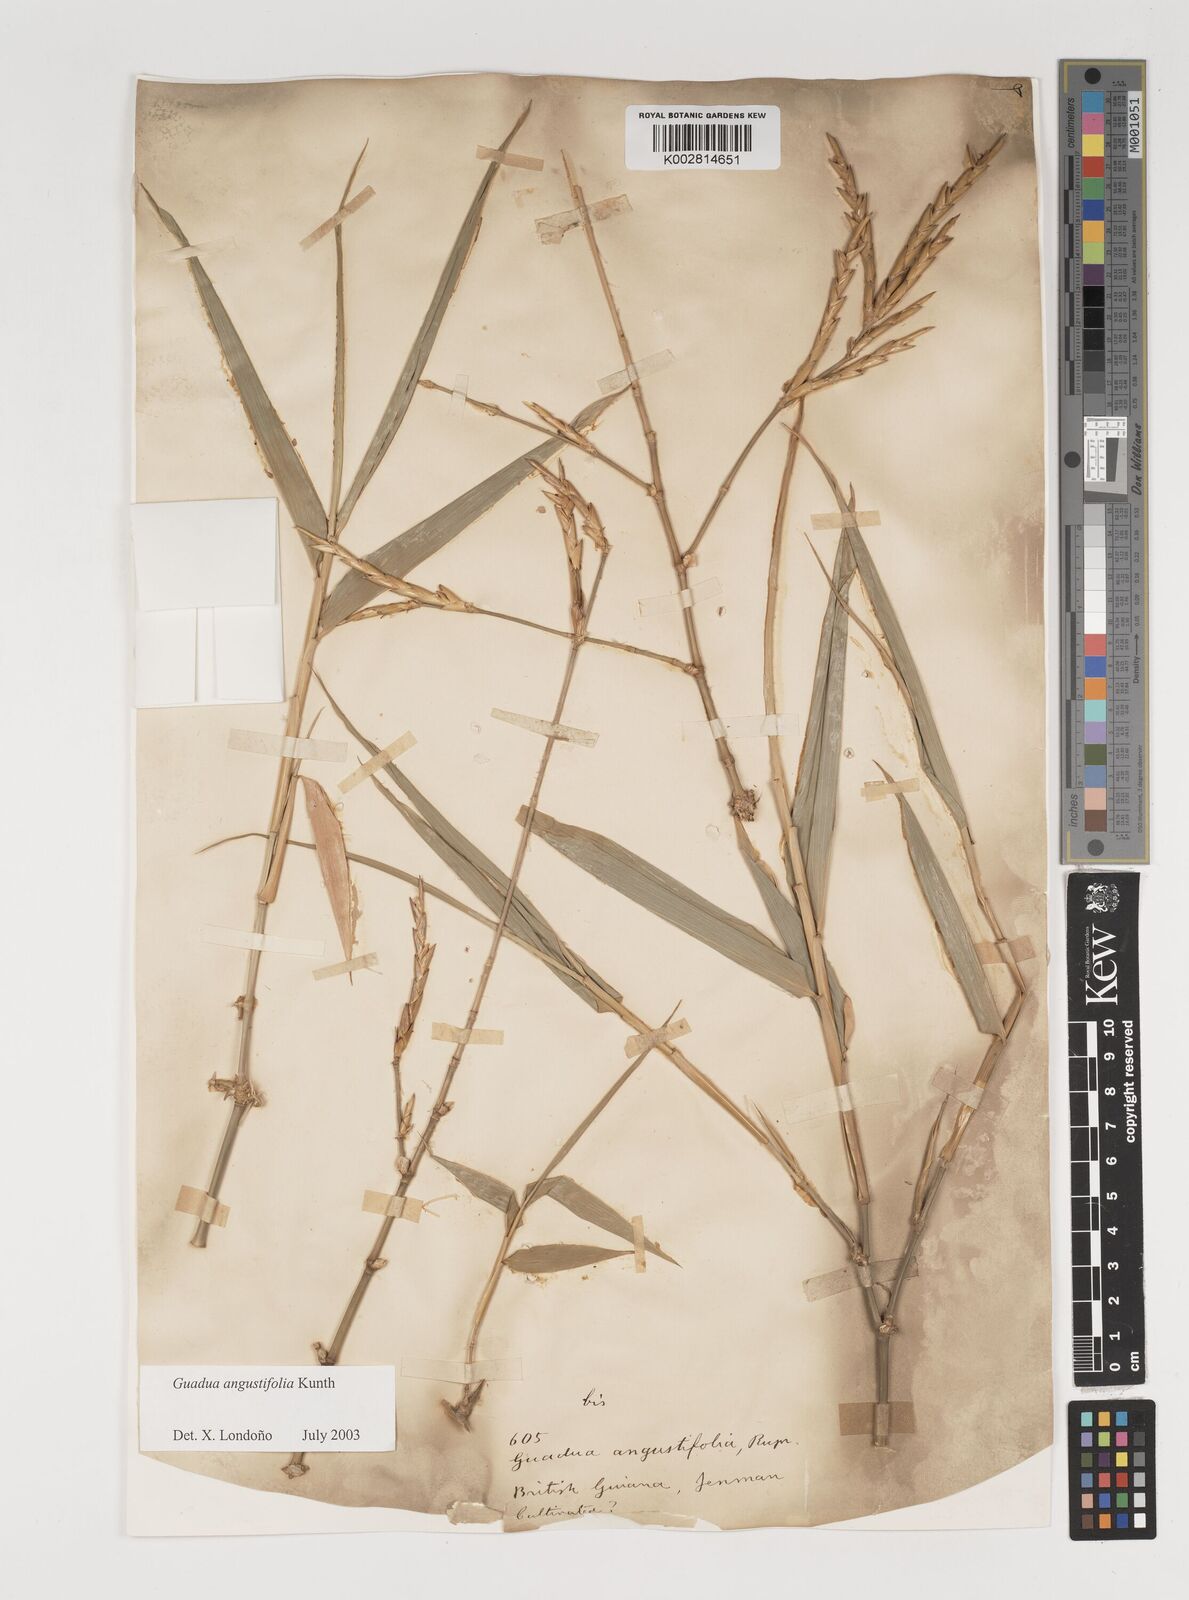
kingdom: Plantae
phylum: Tracheophyta
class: Liliopsida
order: Poales
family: Poaceae
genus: Guadua
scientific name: Guadua angustifolia
